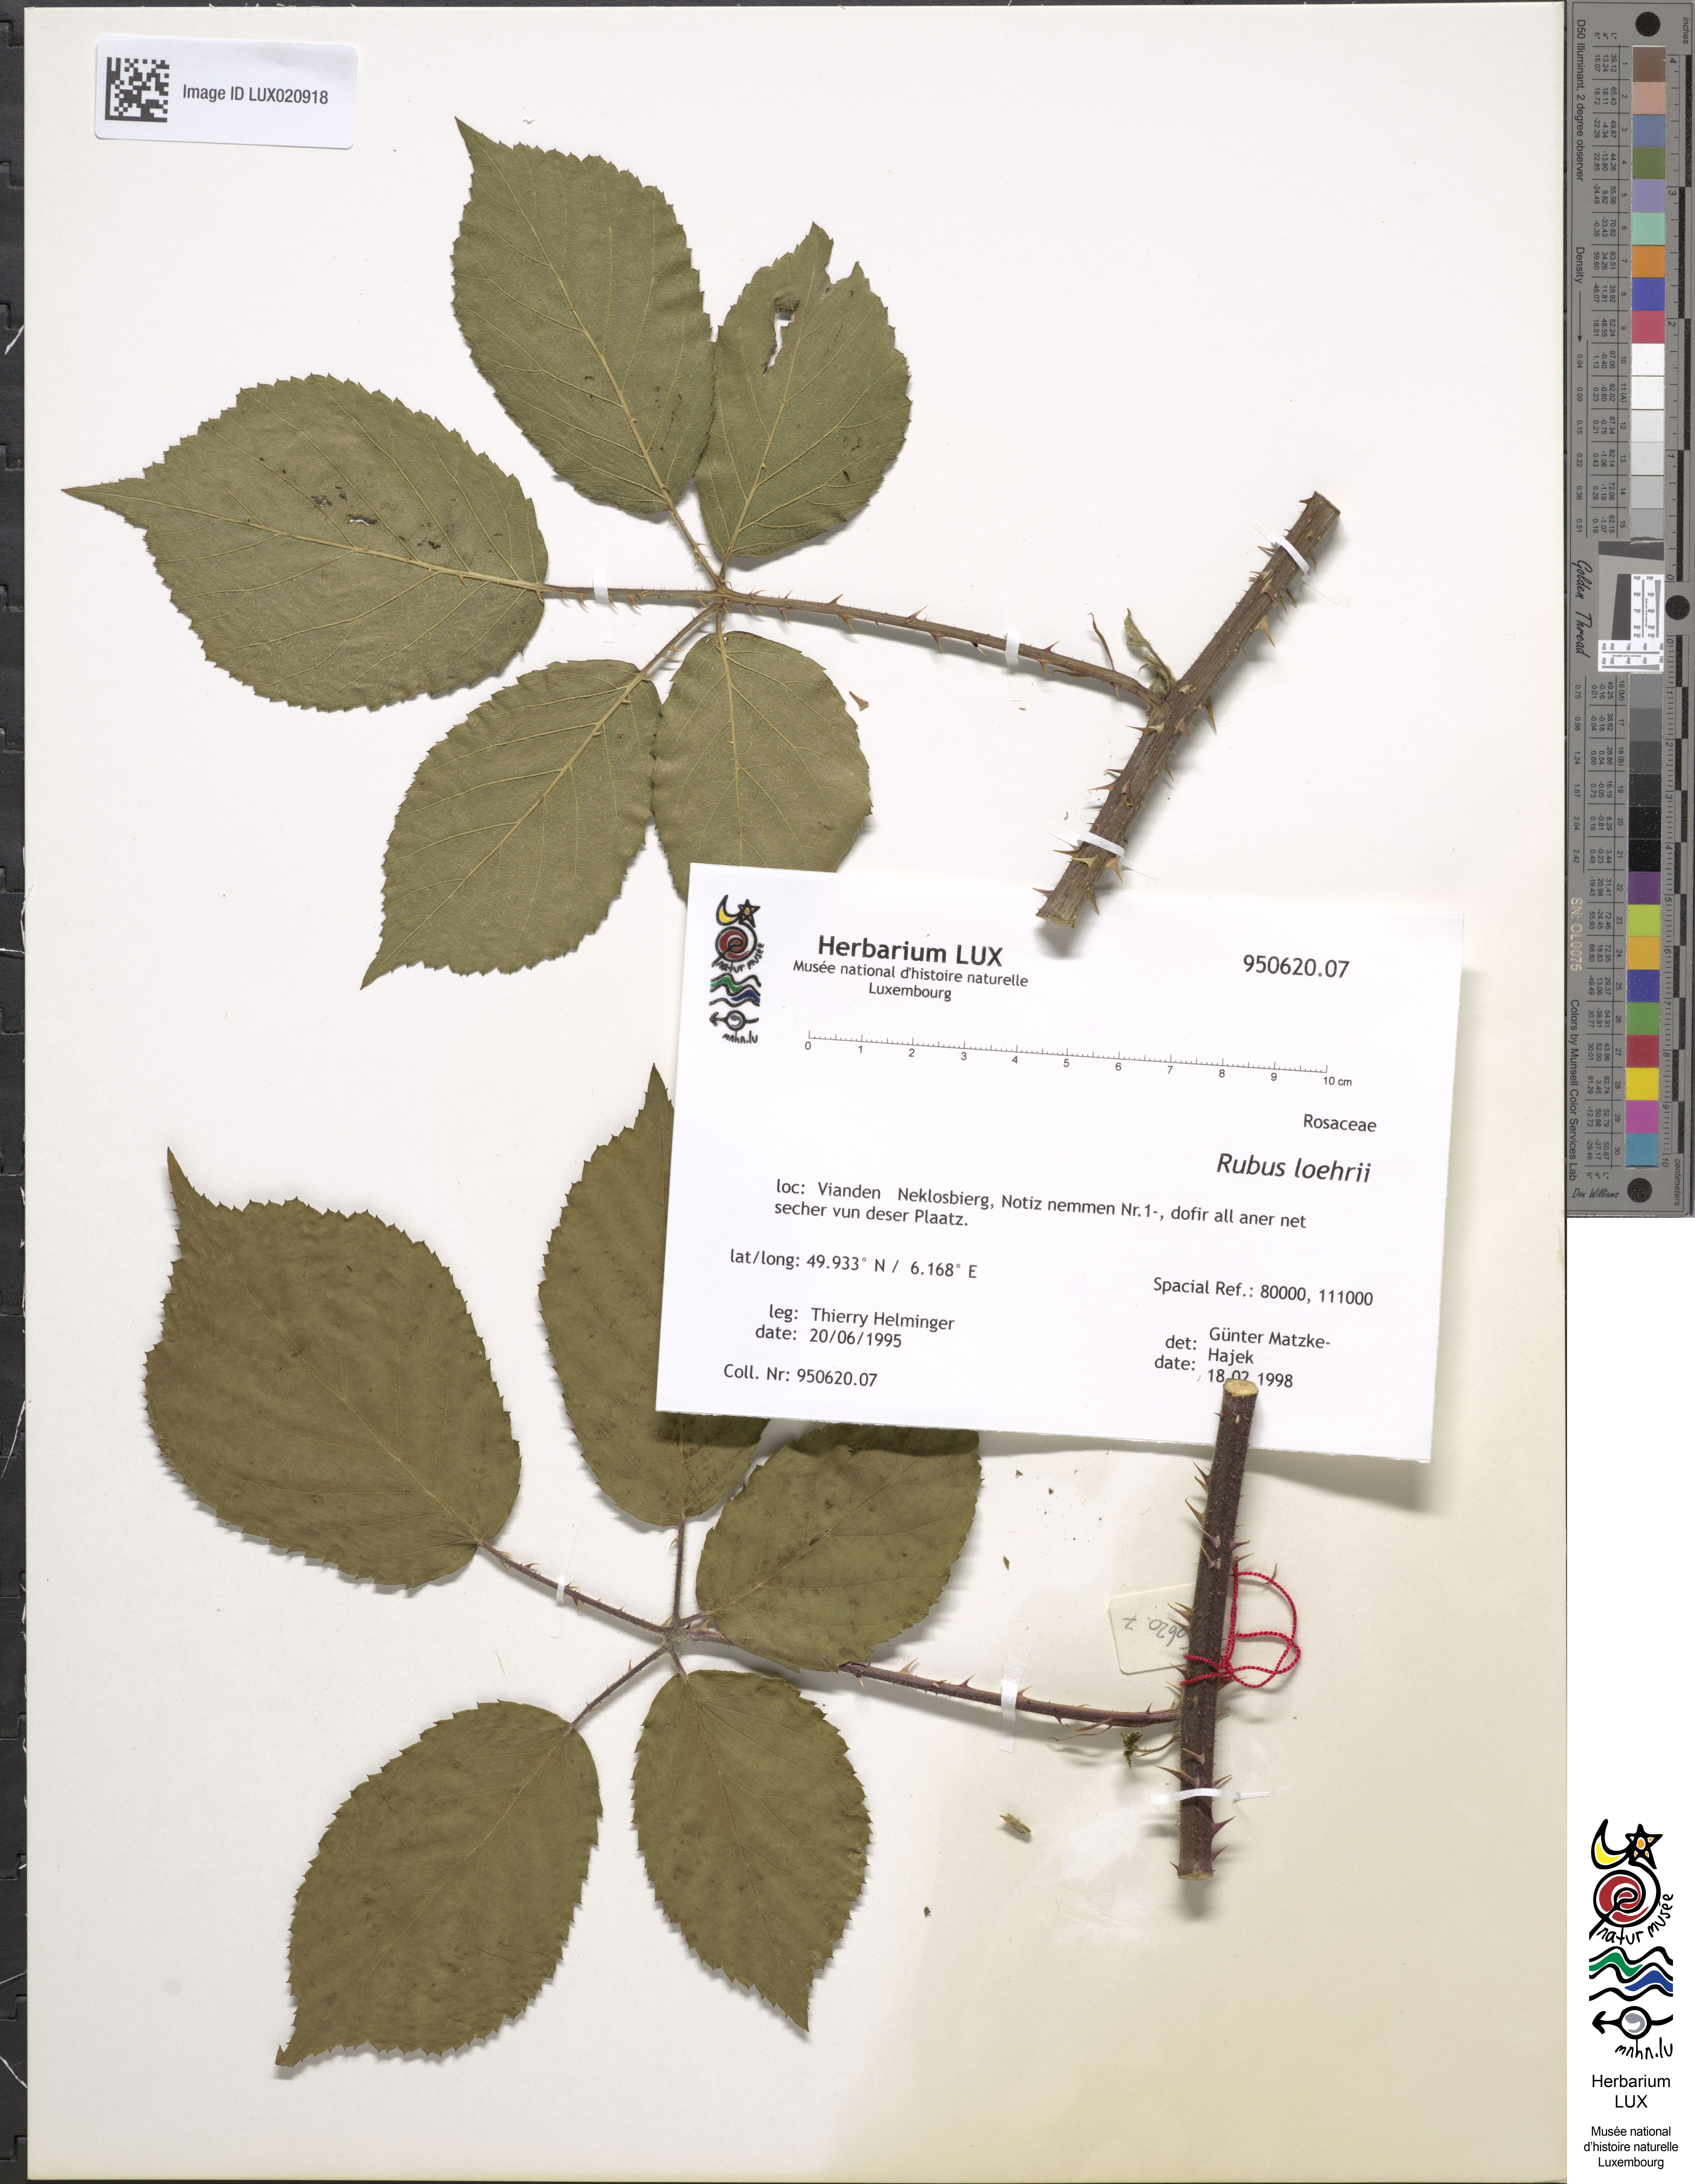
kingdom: Plantae
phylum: Tracheophyta
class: Magnoliopsida
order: Rosales
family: Rosaceae
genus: Rubus
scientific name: Rubus loehrii
